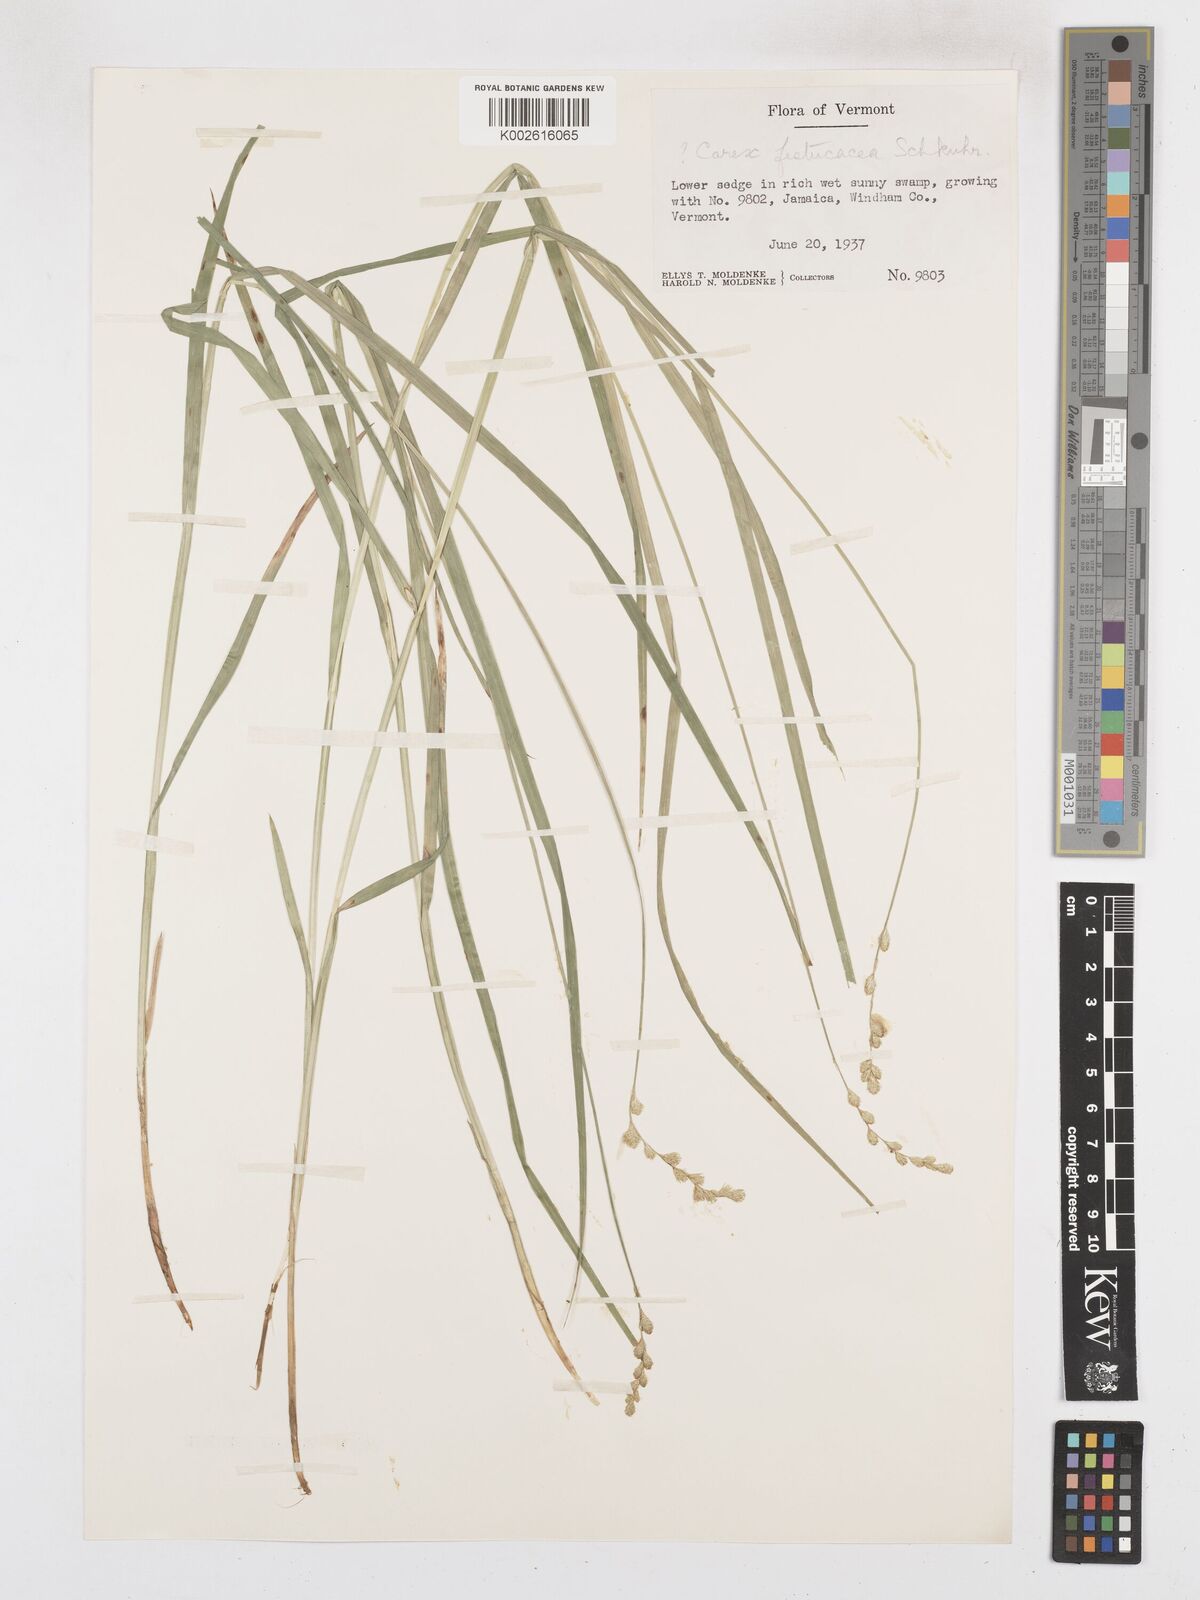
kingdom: Plantae
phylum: Tracheophyta
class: Liliopsida
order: Poales
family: Cyperaceae
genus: Carex
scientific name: Carex festucacea
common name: Fescue oval sedge
